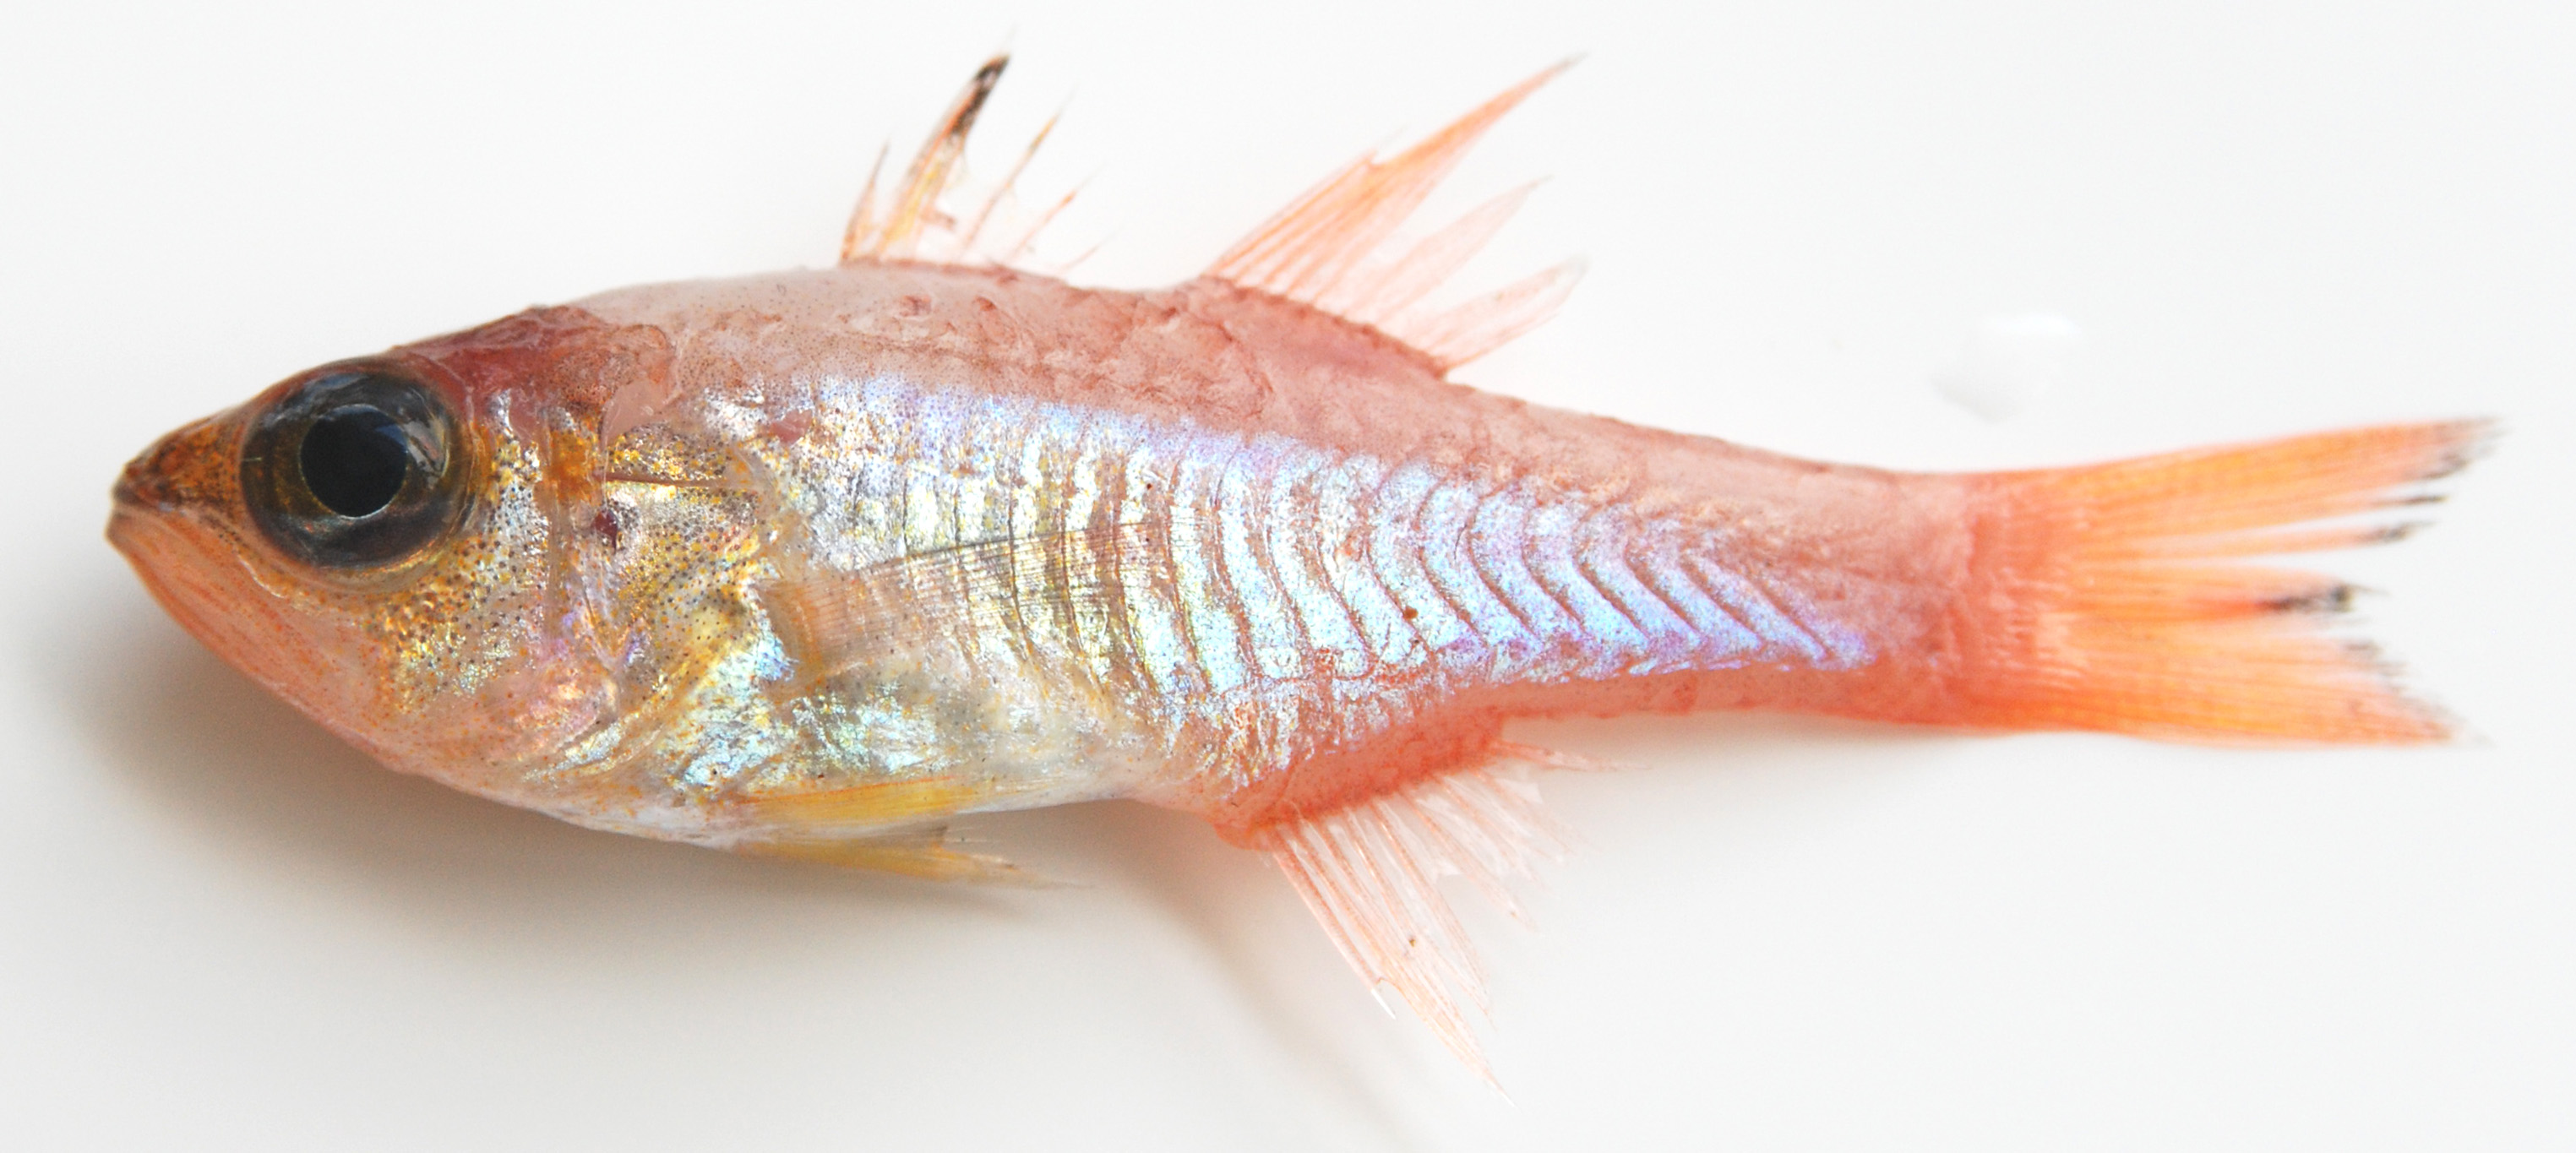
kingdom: Animalia
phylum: Chordata
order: Perciformes
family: Apogonidae
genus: Ostorhinchus
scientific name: Ostorhinchus apogonoides
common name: Goldbelly cardinalfish
